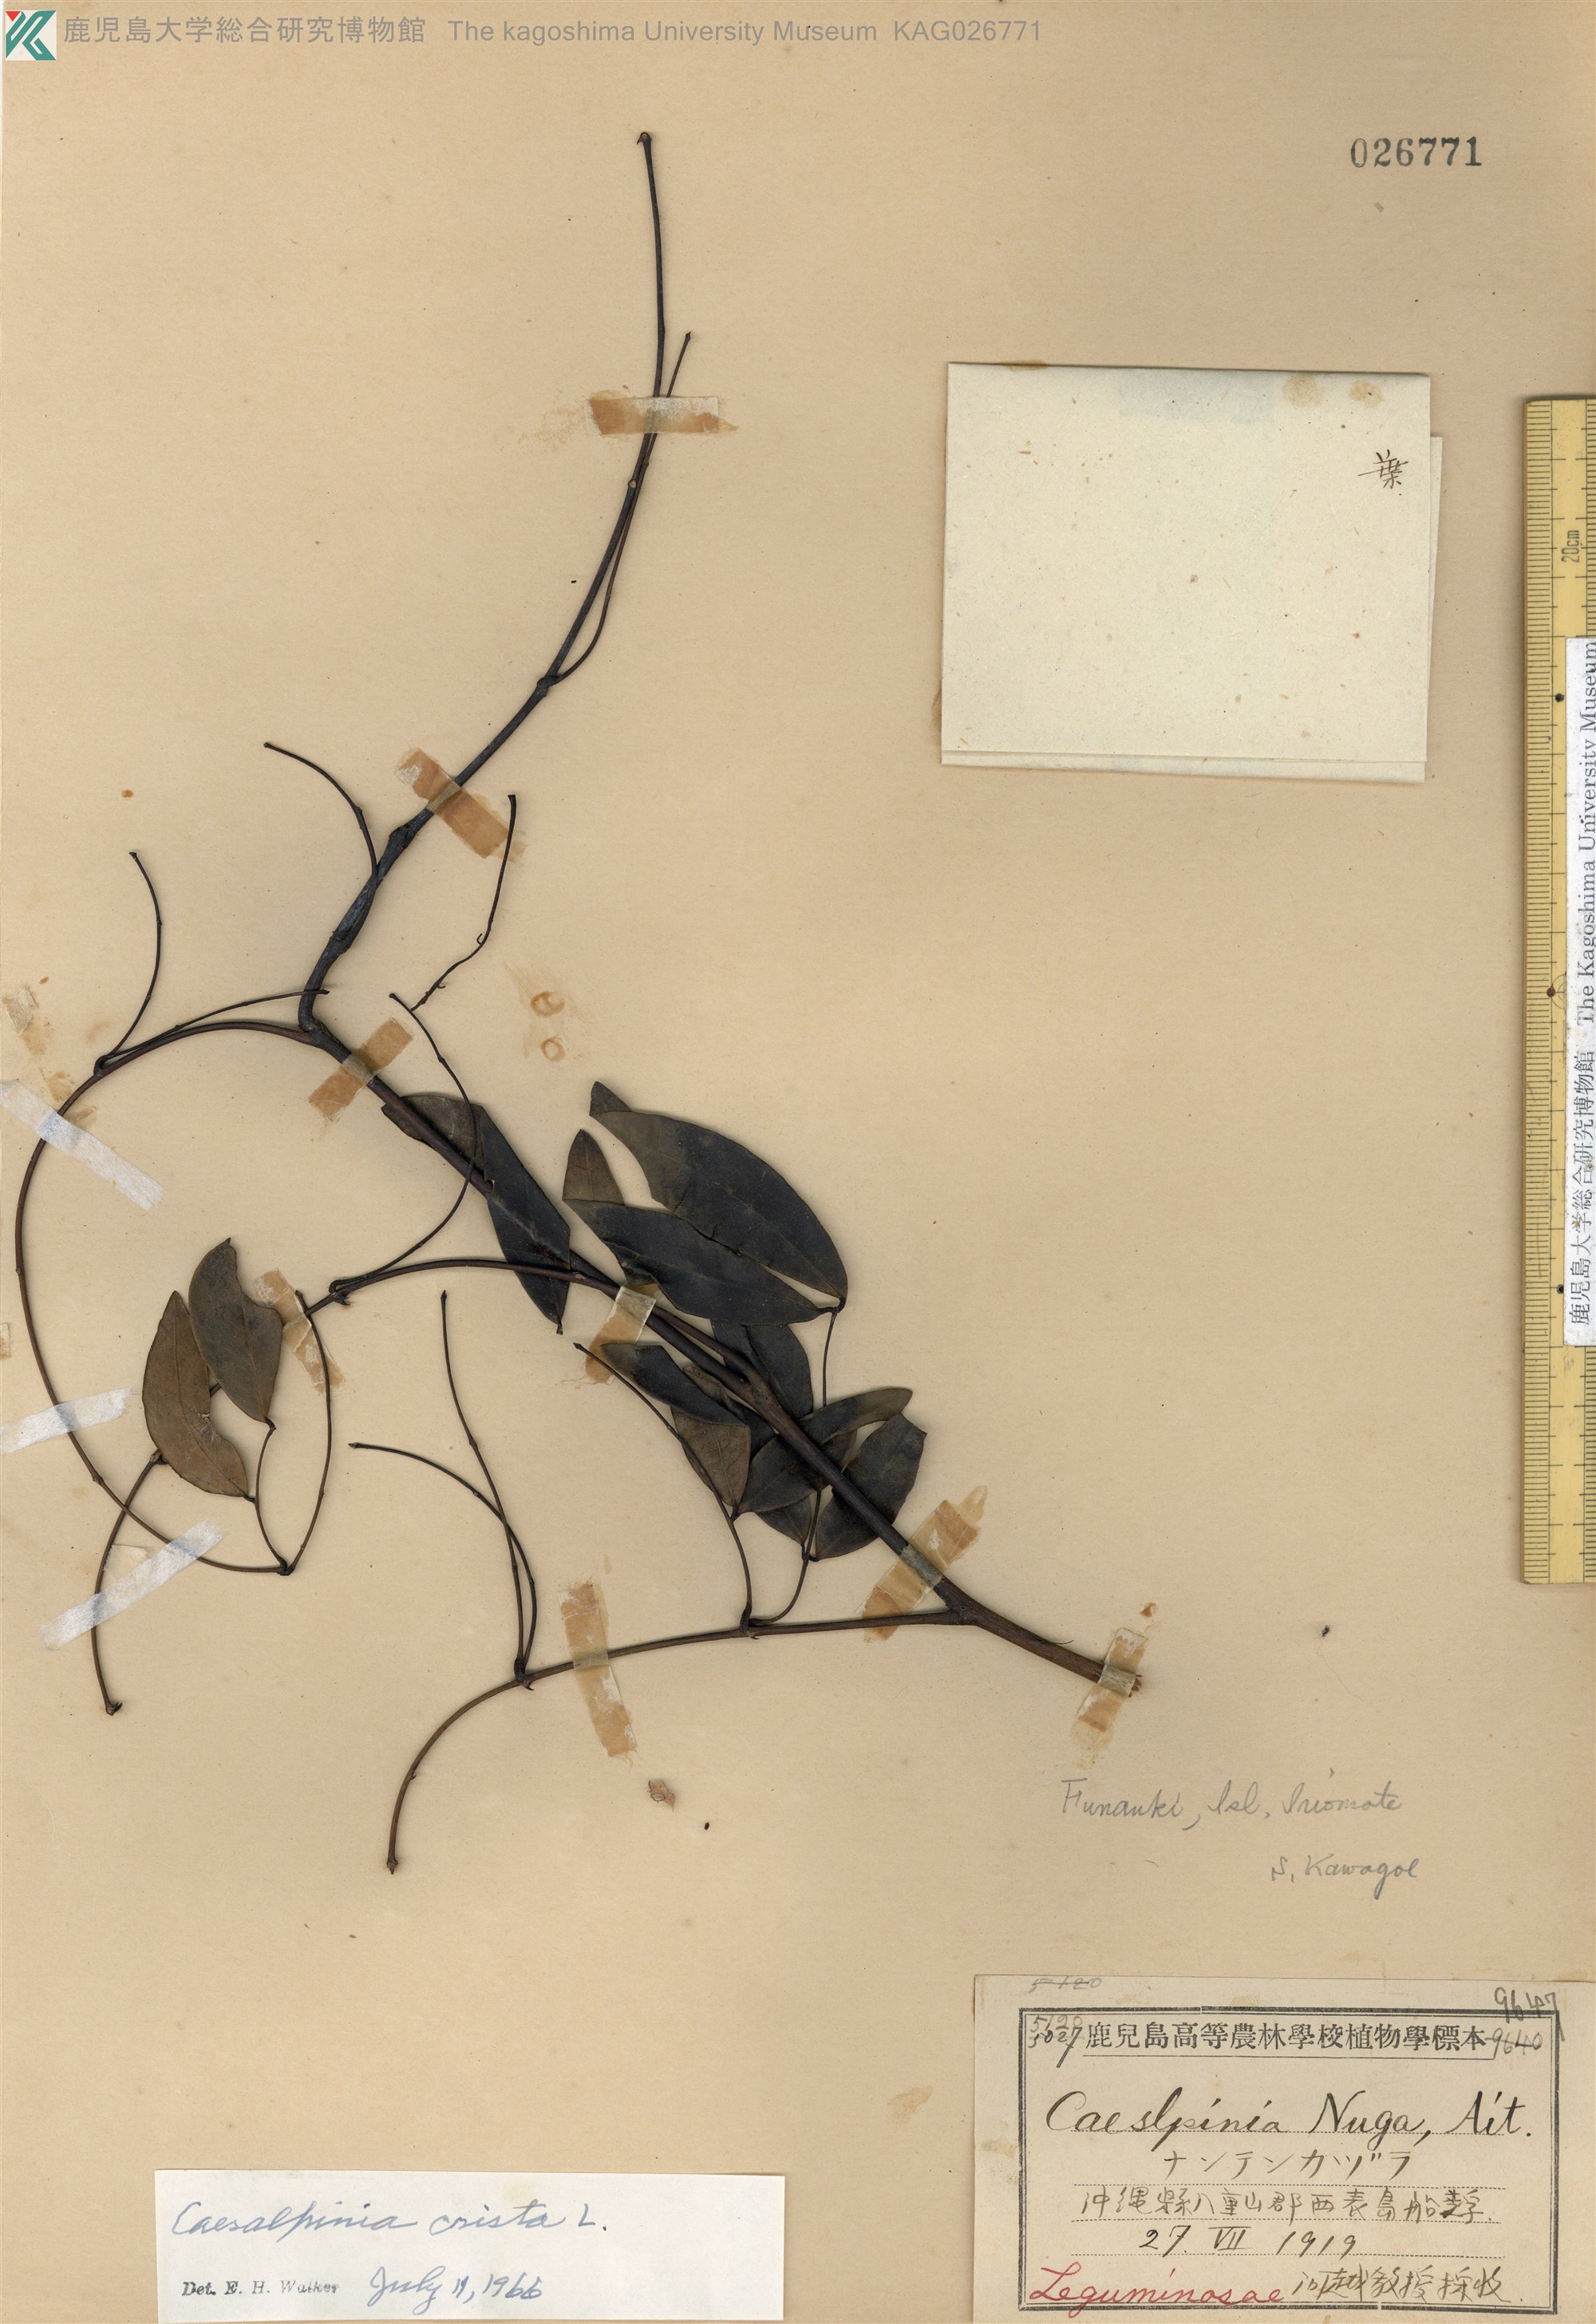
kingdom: Plantae
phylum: Tracheophyta
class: Magnoliopsida
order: Fabales
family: Fabaceae
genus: Caesalpinia
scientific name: Caesalpinia Ticanto crista
